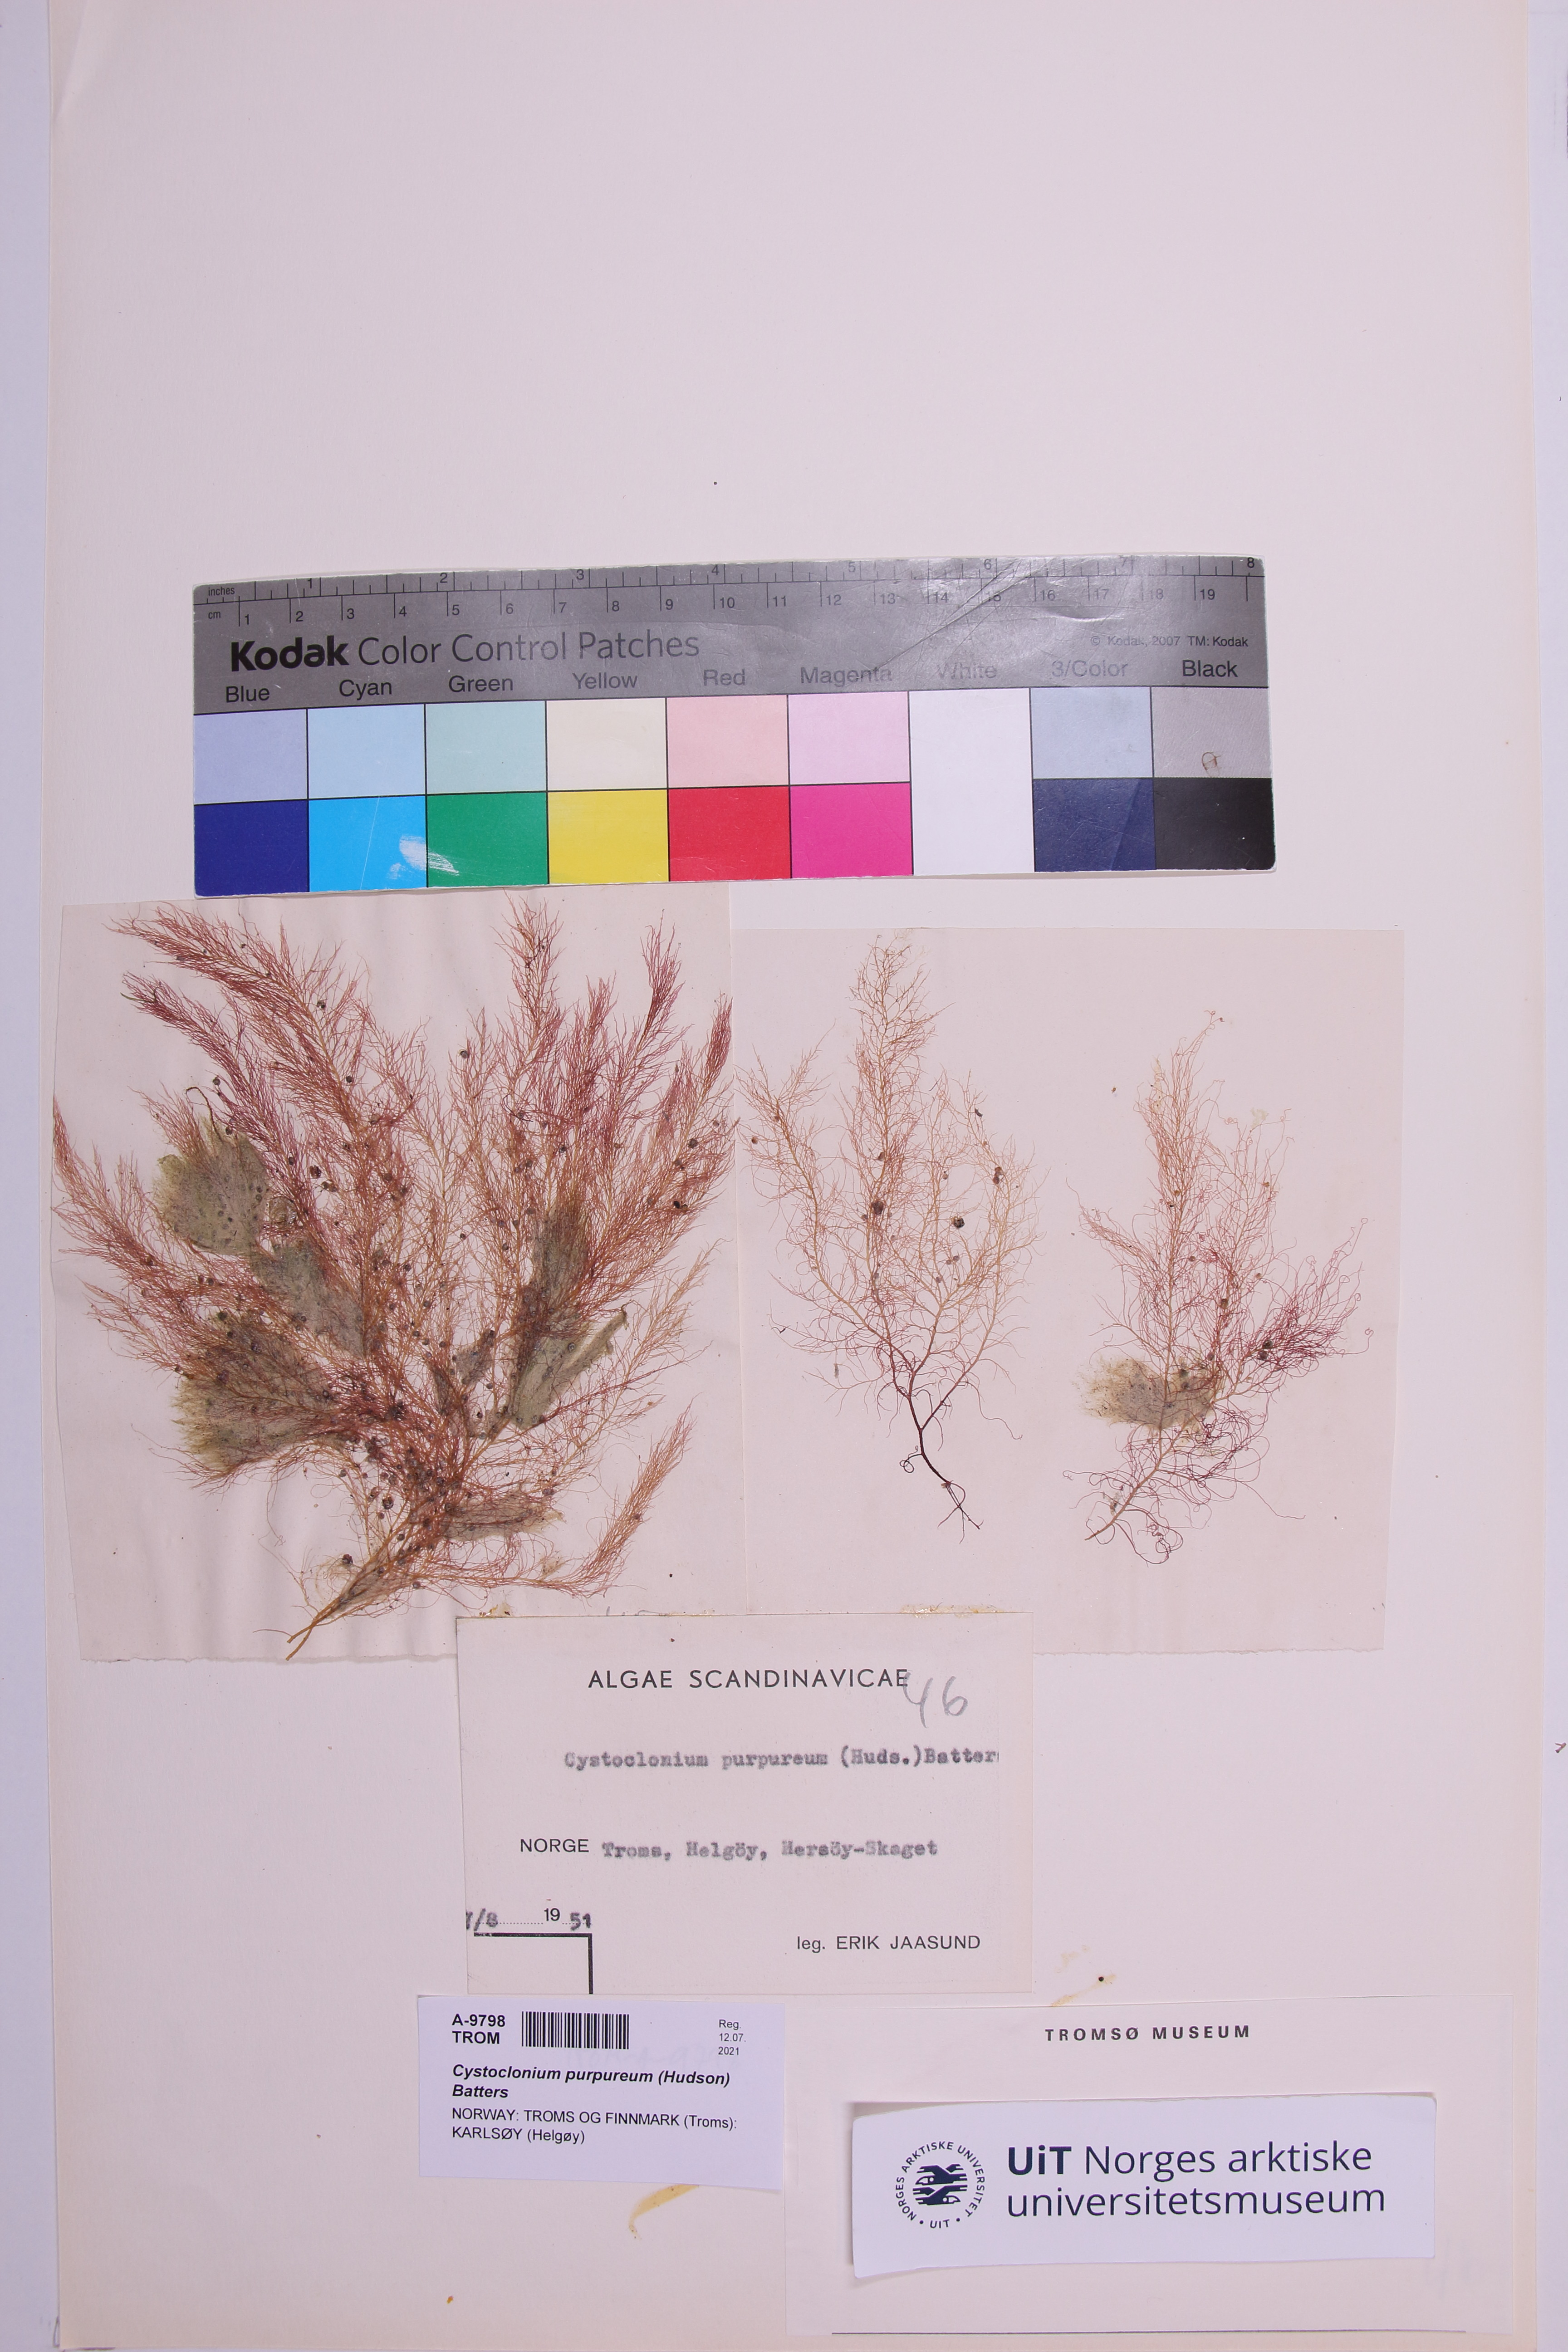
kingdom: Plantae
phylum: Rhodophyta
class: Florideophyceae
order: Gigartinales
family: Cystocloniaceae
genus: Cystoclonium
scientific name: Cystoclonium purpureum
